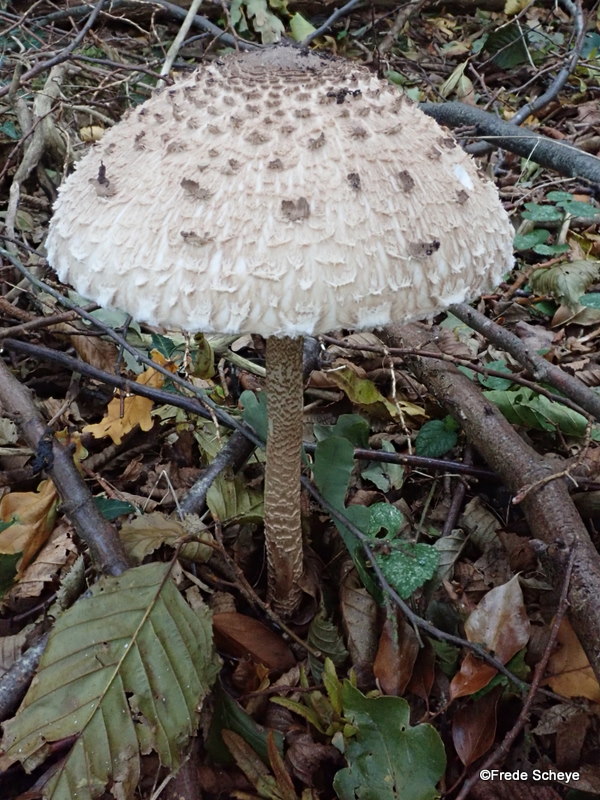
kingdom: Fungi
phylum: Basidiomycota
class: Agaricomycetes
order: Agaricales
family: Agaricaceae
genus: Macrolepiota
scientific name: Macrolepiota procera
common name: stor kæmpeparasolhat
